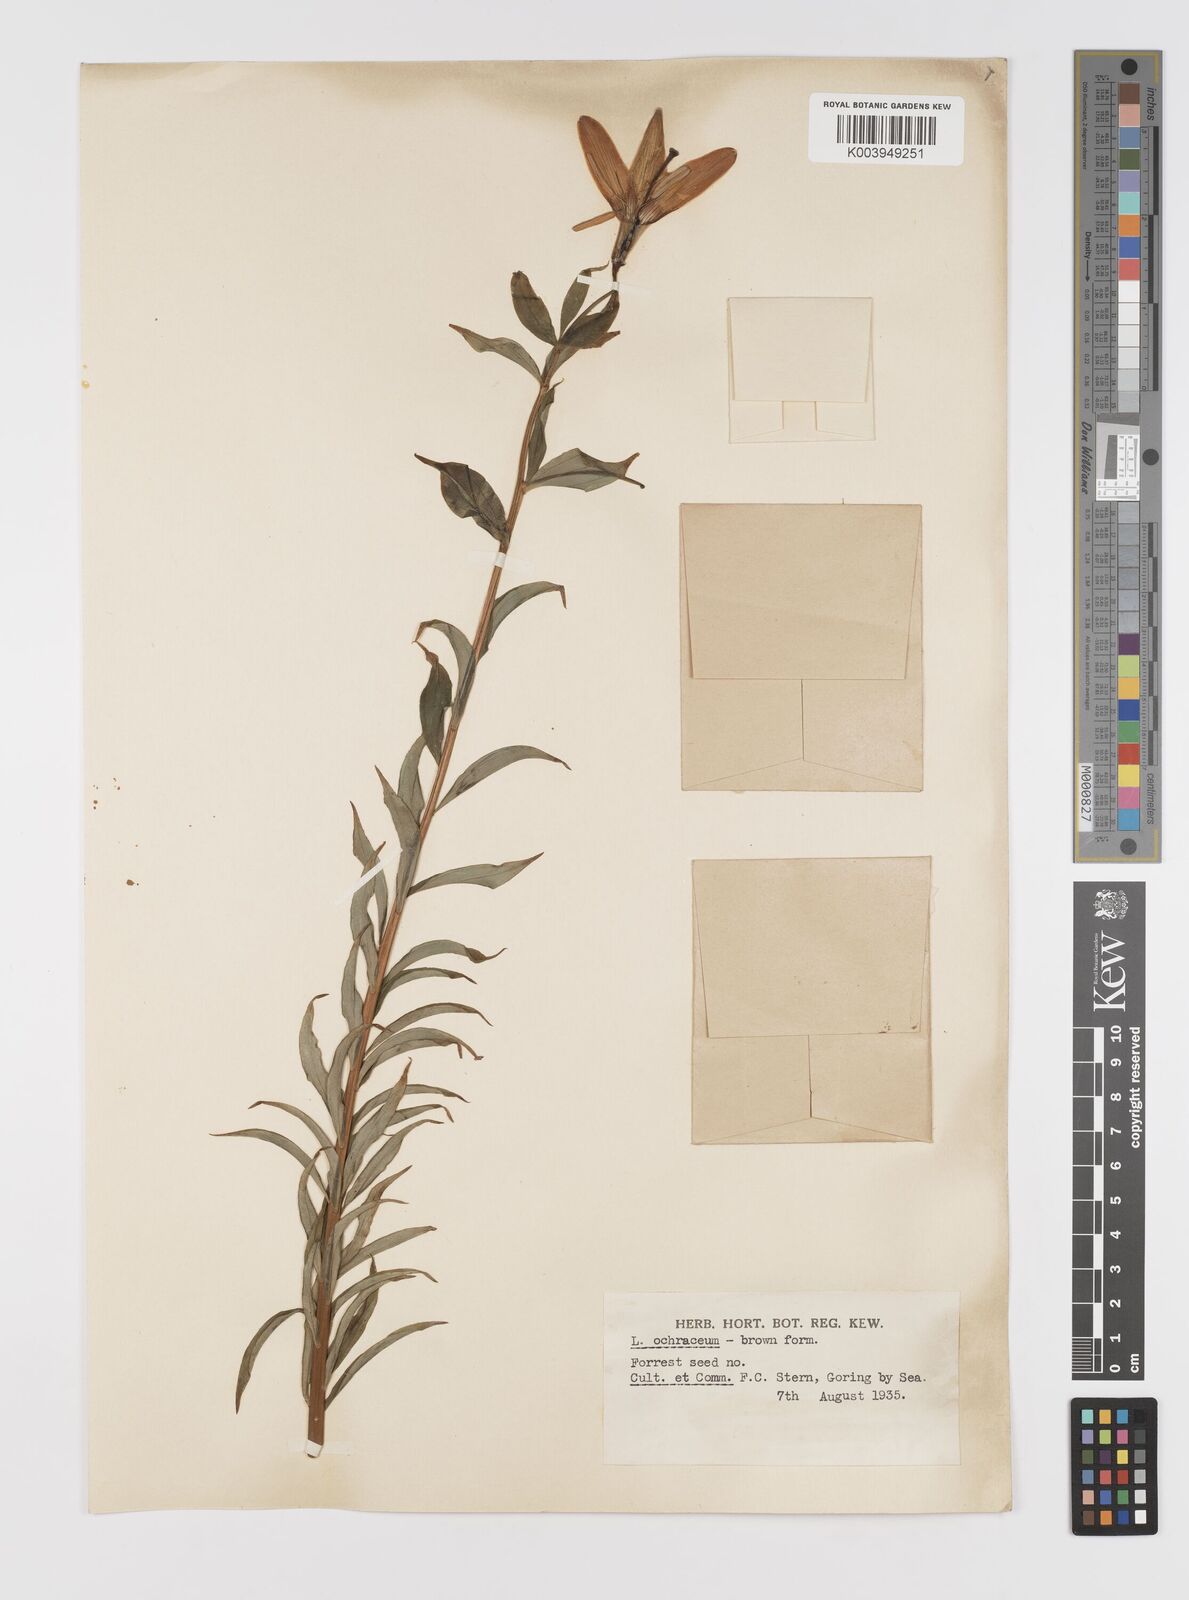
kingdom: Plantae
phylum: Tracheophyta
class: Liliopsida
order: Liliales
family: Liliaceae
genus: Lilium
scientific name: Lilium primulinum
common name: Ochre lily
